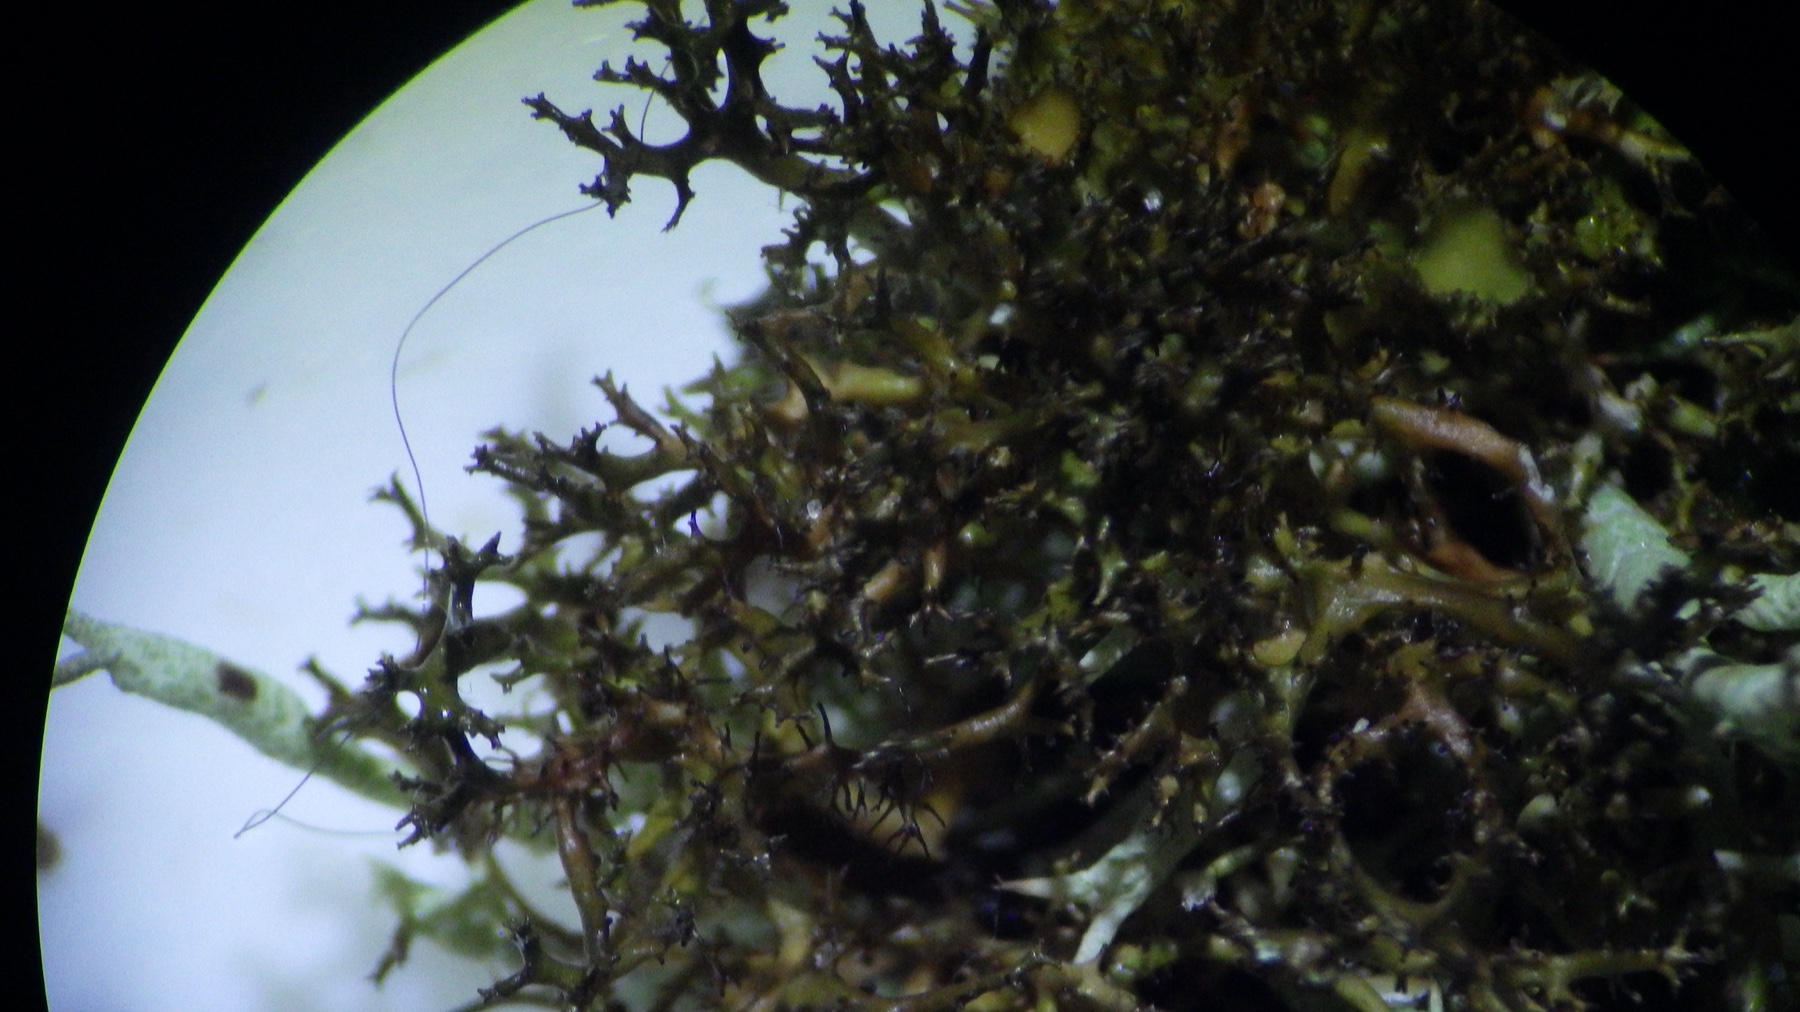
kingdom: Fungi
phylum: Ascomycota
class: Lecanoromycetes
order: Lecanorales
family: Parmeliaceae
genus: Cetraria
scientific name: Cetraria muricata
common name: tue-tjørnelav
